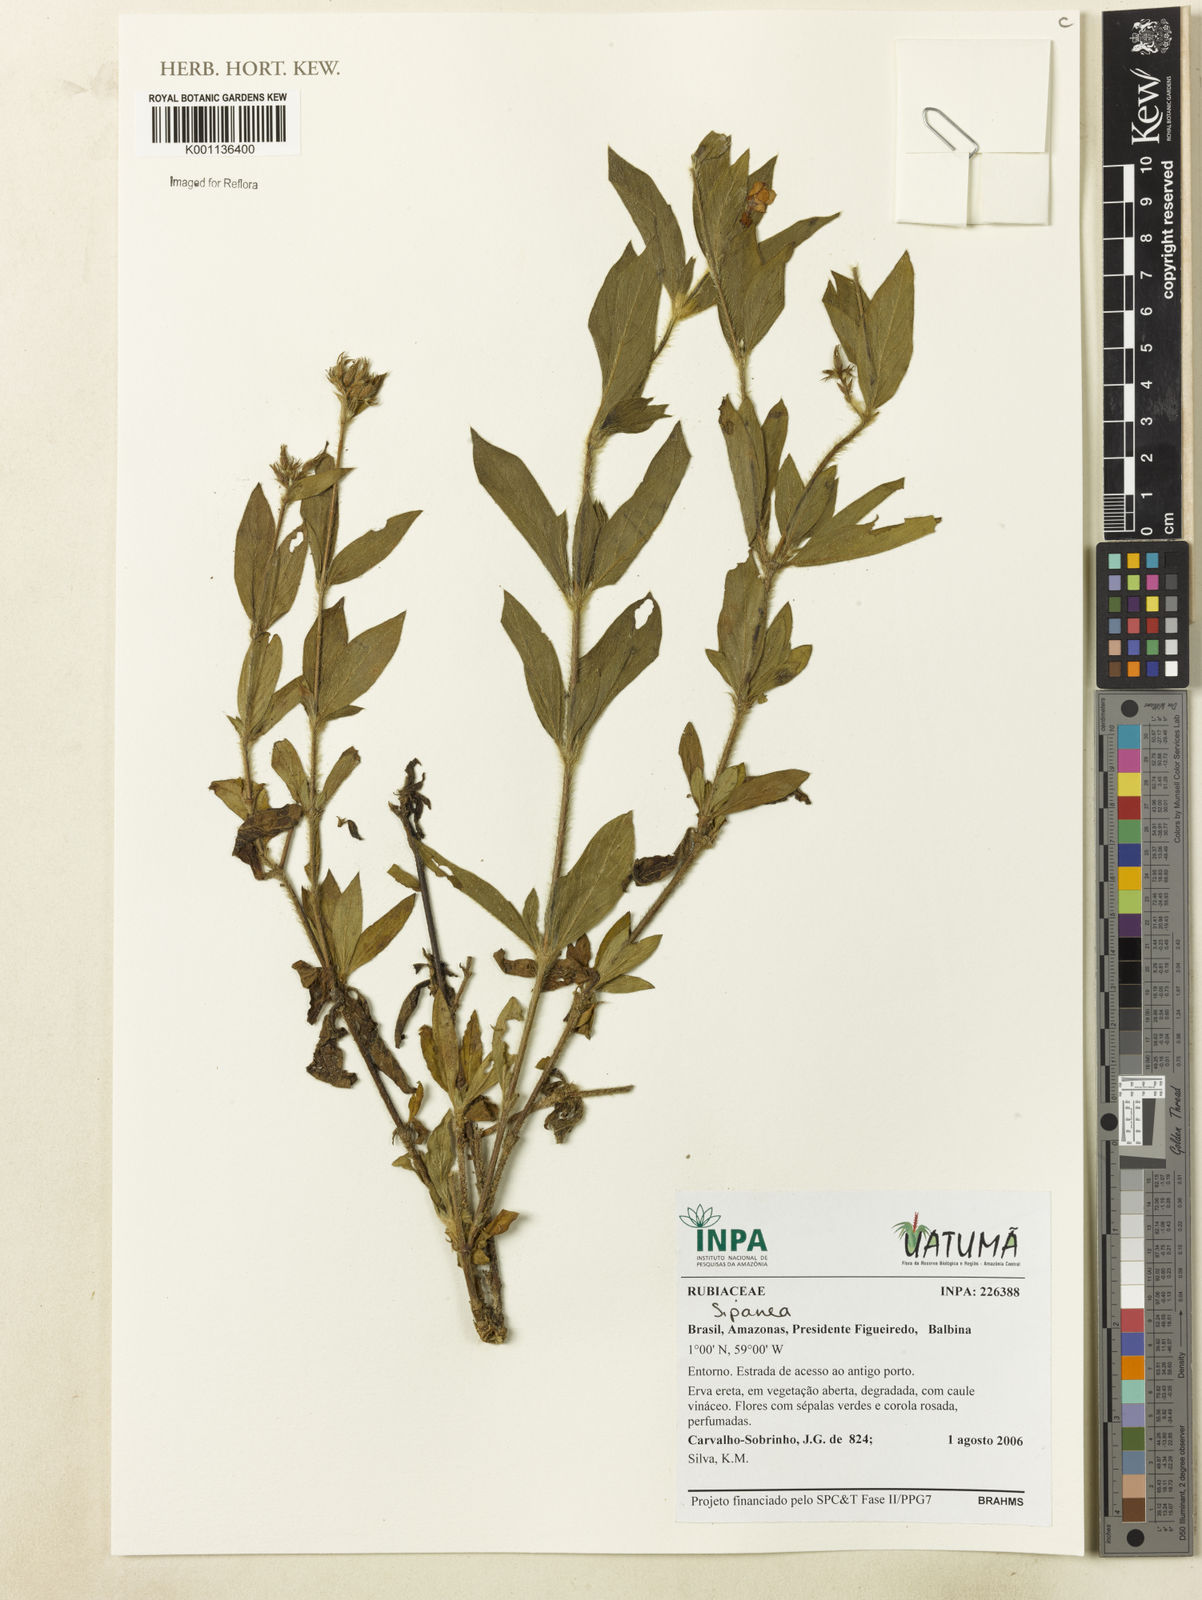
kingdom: Plantae
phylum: Tracheophyta
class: Magnoliopsida
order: Gentianales
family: Rubiaceae
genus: Sipanea
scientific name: Sipanea
